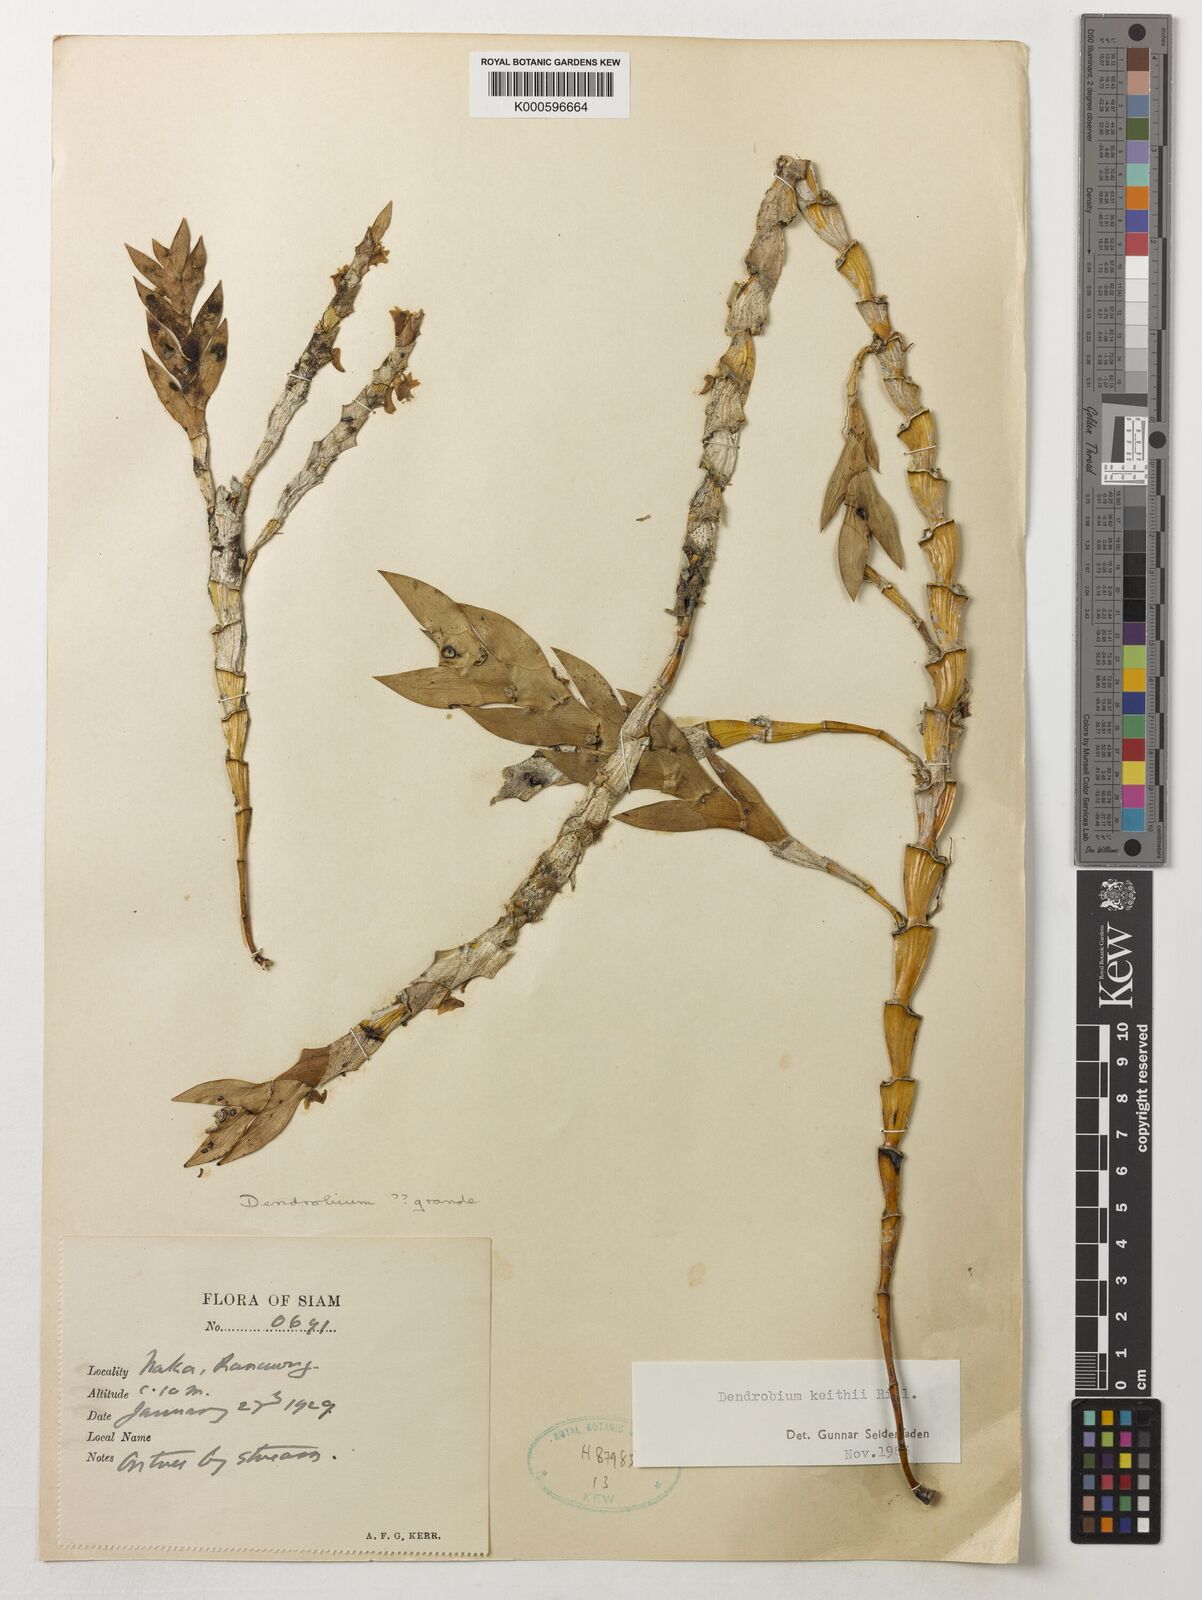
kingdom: Plantae
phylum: Tracheophyta
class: Liliopsida
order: Asparagales
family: Orchidaceae
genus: Dendrobium
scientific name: Dendrobium keithii
